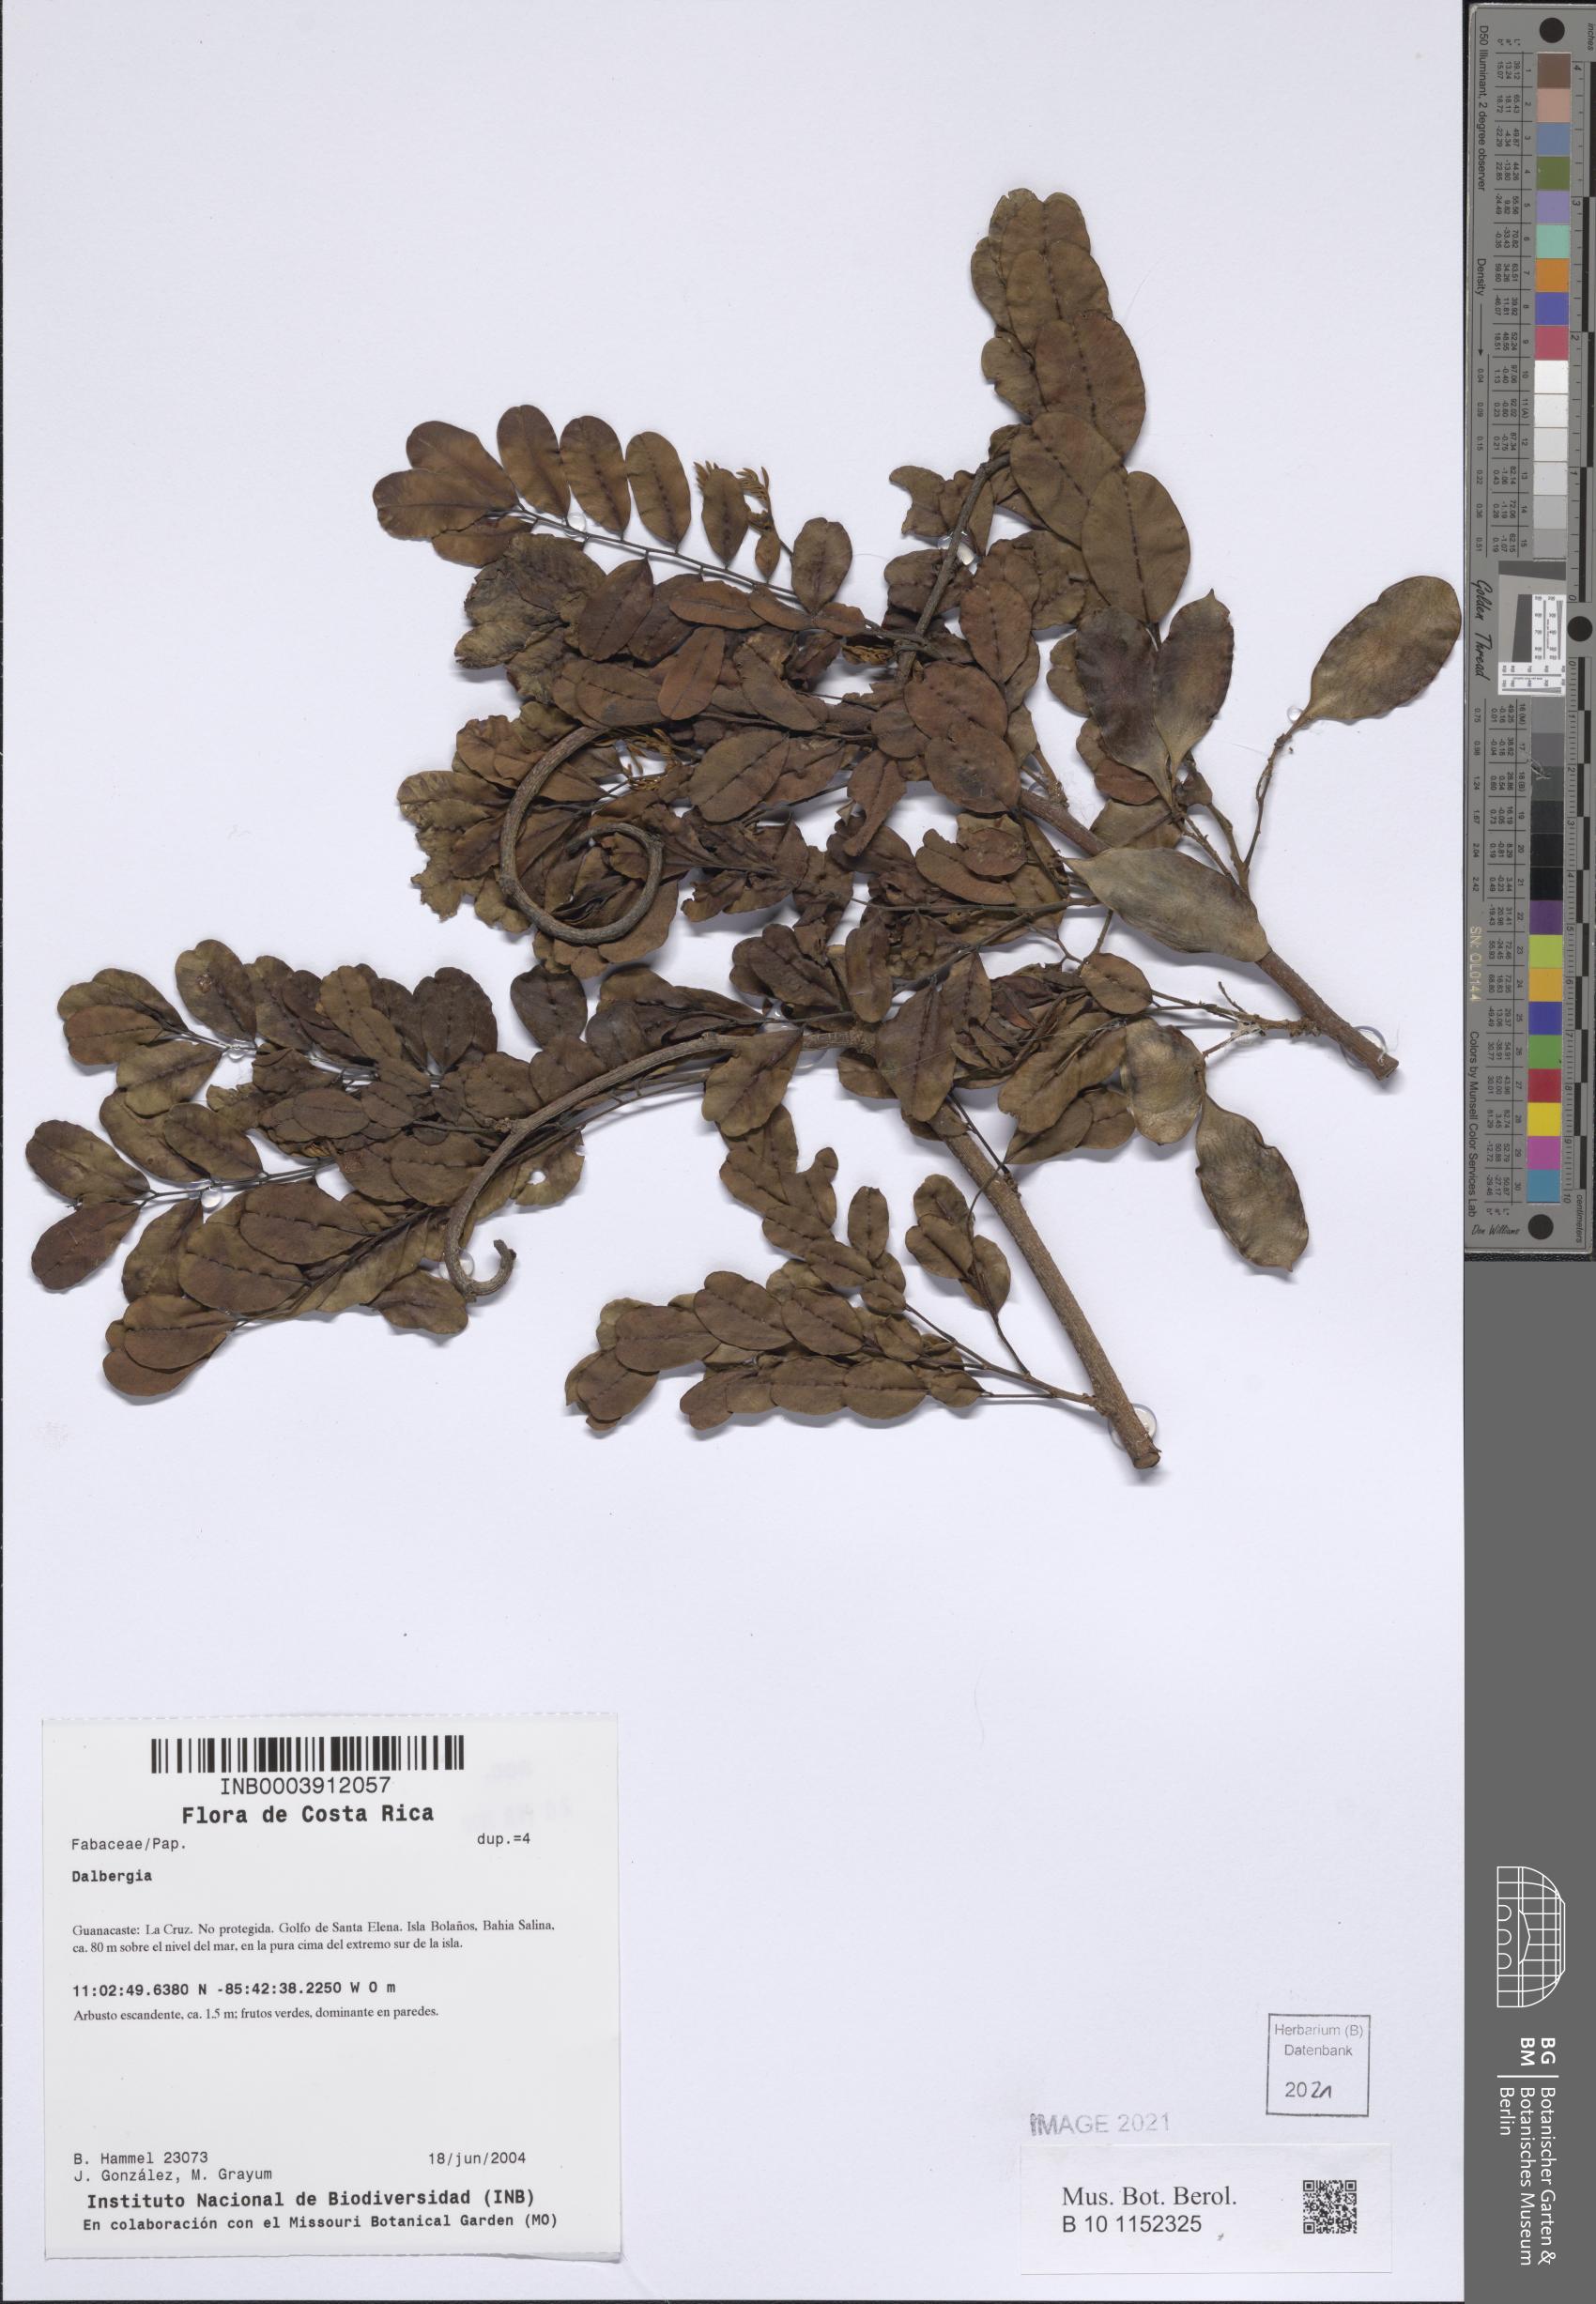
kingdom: Plantae
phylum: Tracheophyta
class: Magnoliopsida
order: Fabales
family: Fabaceae
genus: Dalbergia
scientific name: Dalbergia
